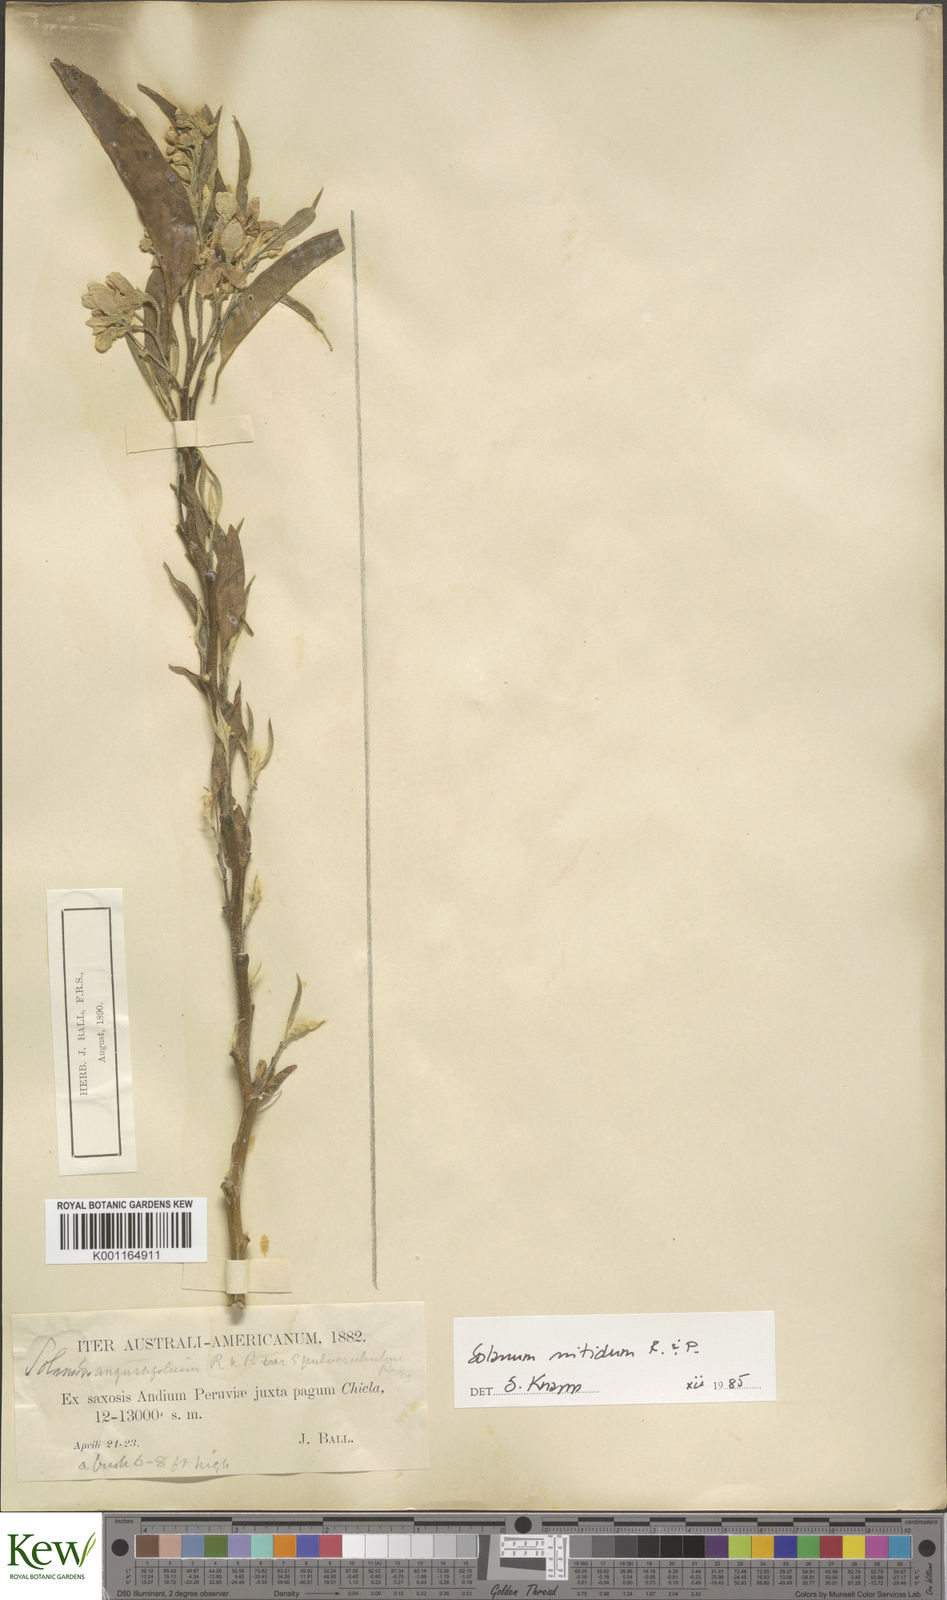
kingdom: Plantae
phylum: Tracheophyta
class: Magnoliopsida
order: Solanales
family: Solanaceae
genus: Solanum
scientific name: Solanum nitidum
